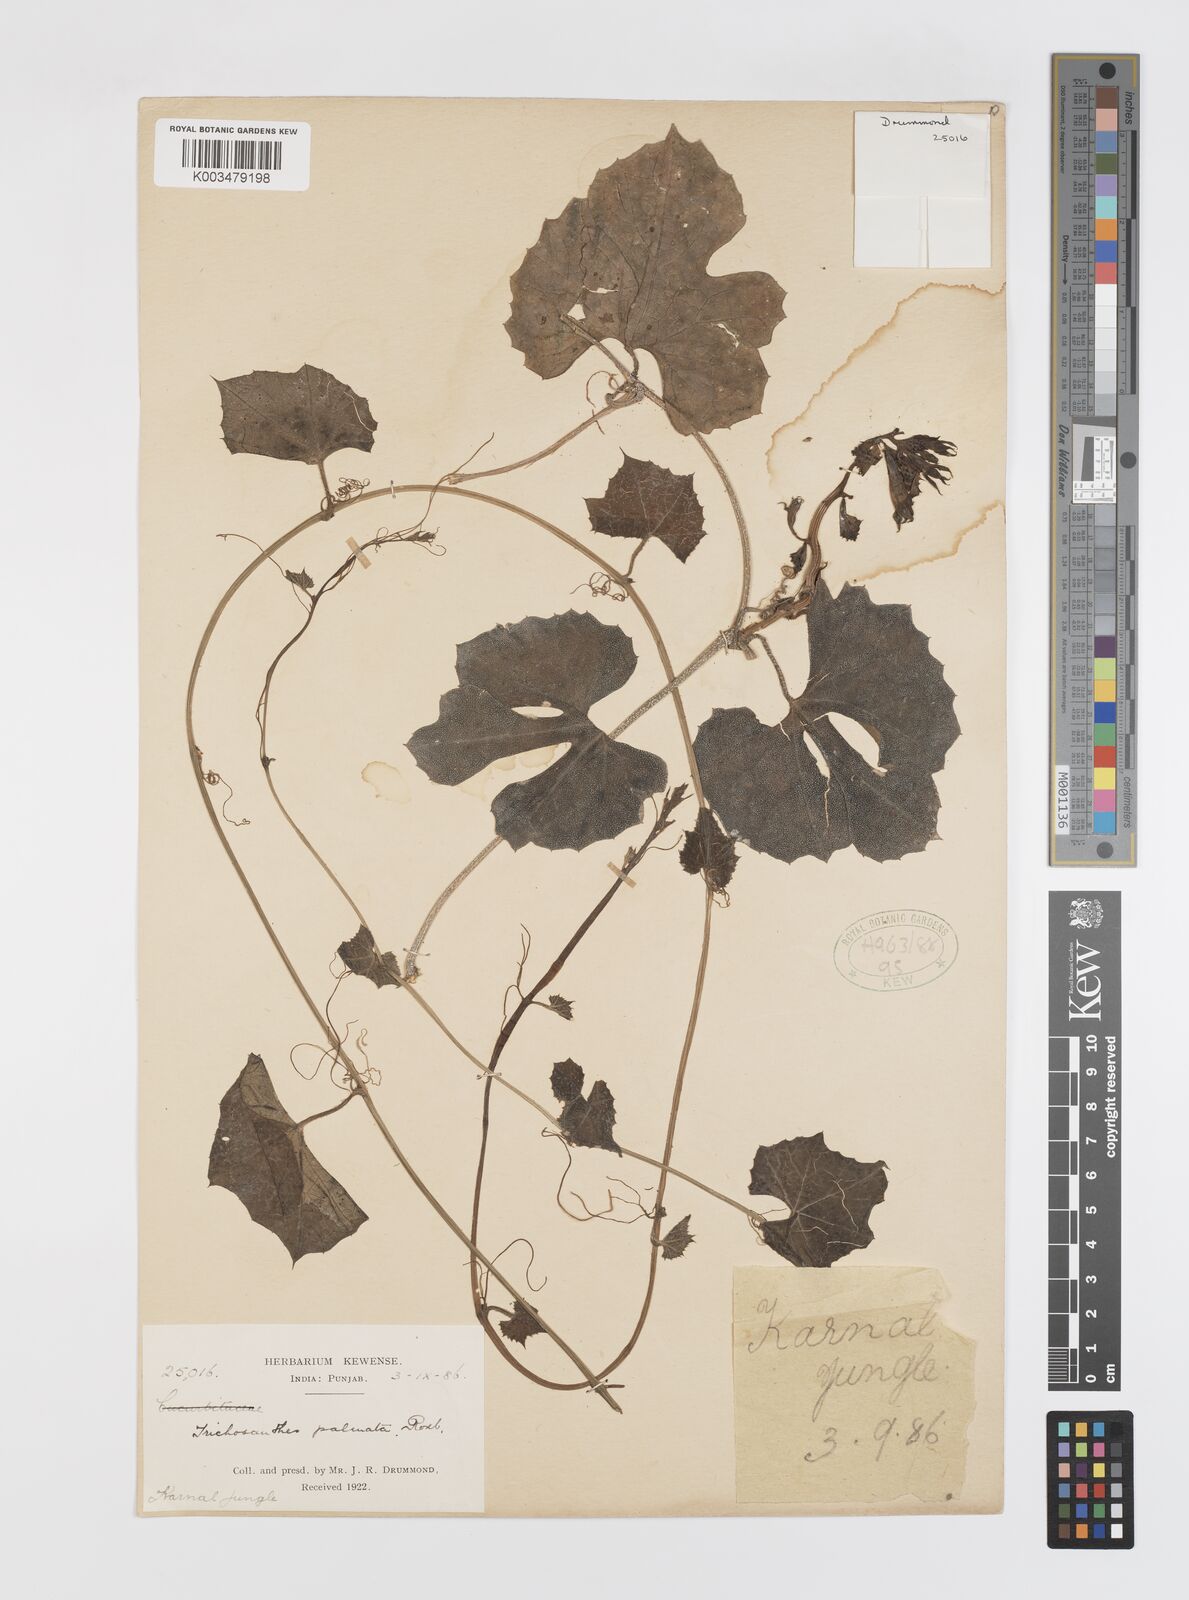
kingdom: Plantae
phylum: Tracheophyta
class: Magnoliopsida
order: Cucurbitales
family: Cucurbitaceae
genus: Trichosanthes
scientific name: Trichosanthes tricuspidata
